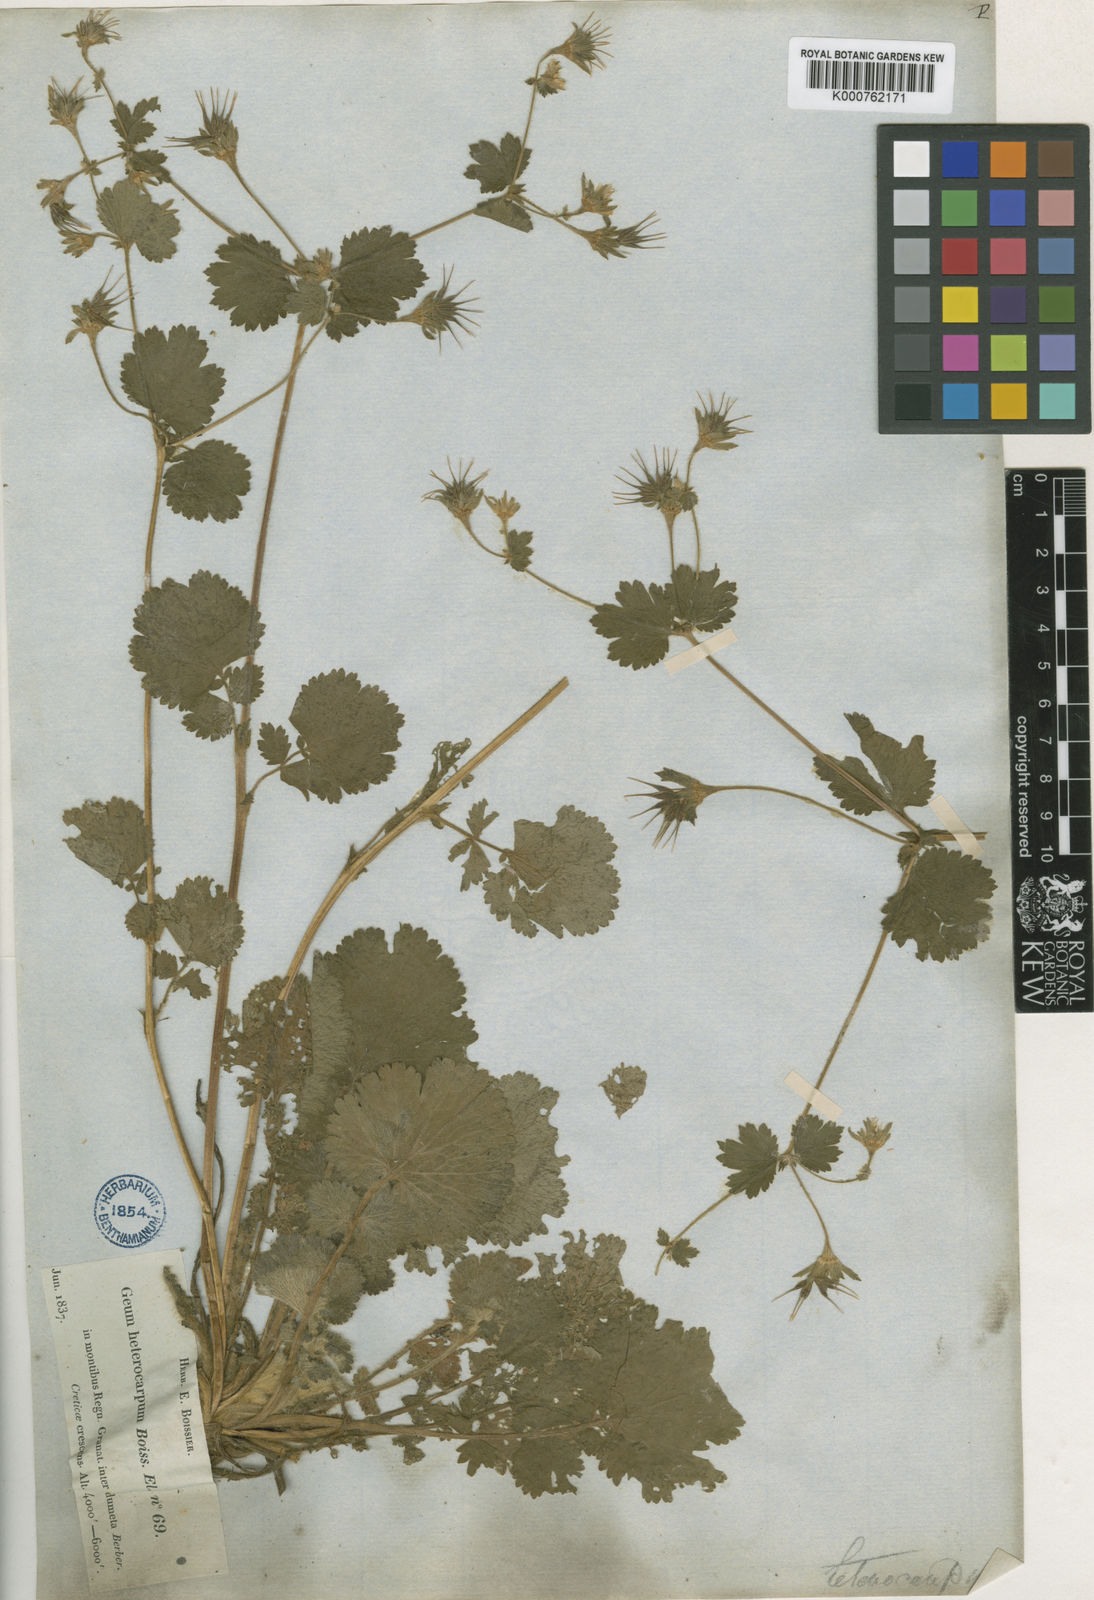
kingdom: Plantae
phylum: Tracheophyta
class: Magnoliopsida
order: Rosales
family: Rosaceae
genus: Geum
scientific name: Geum heterocarpum
